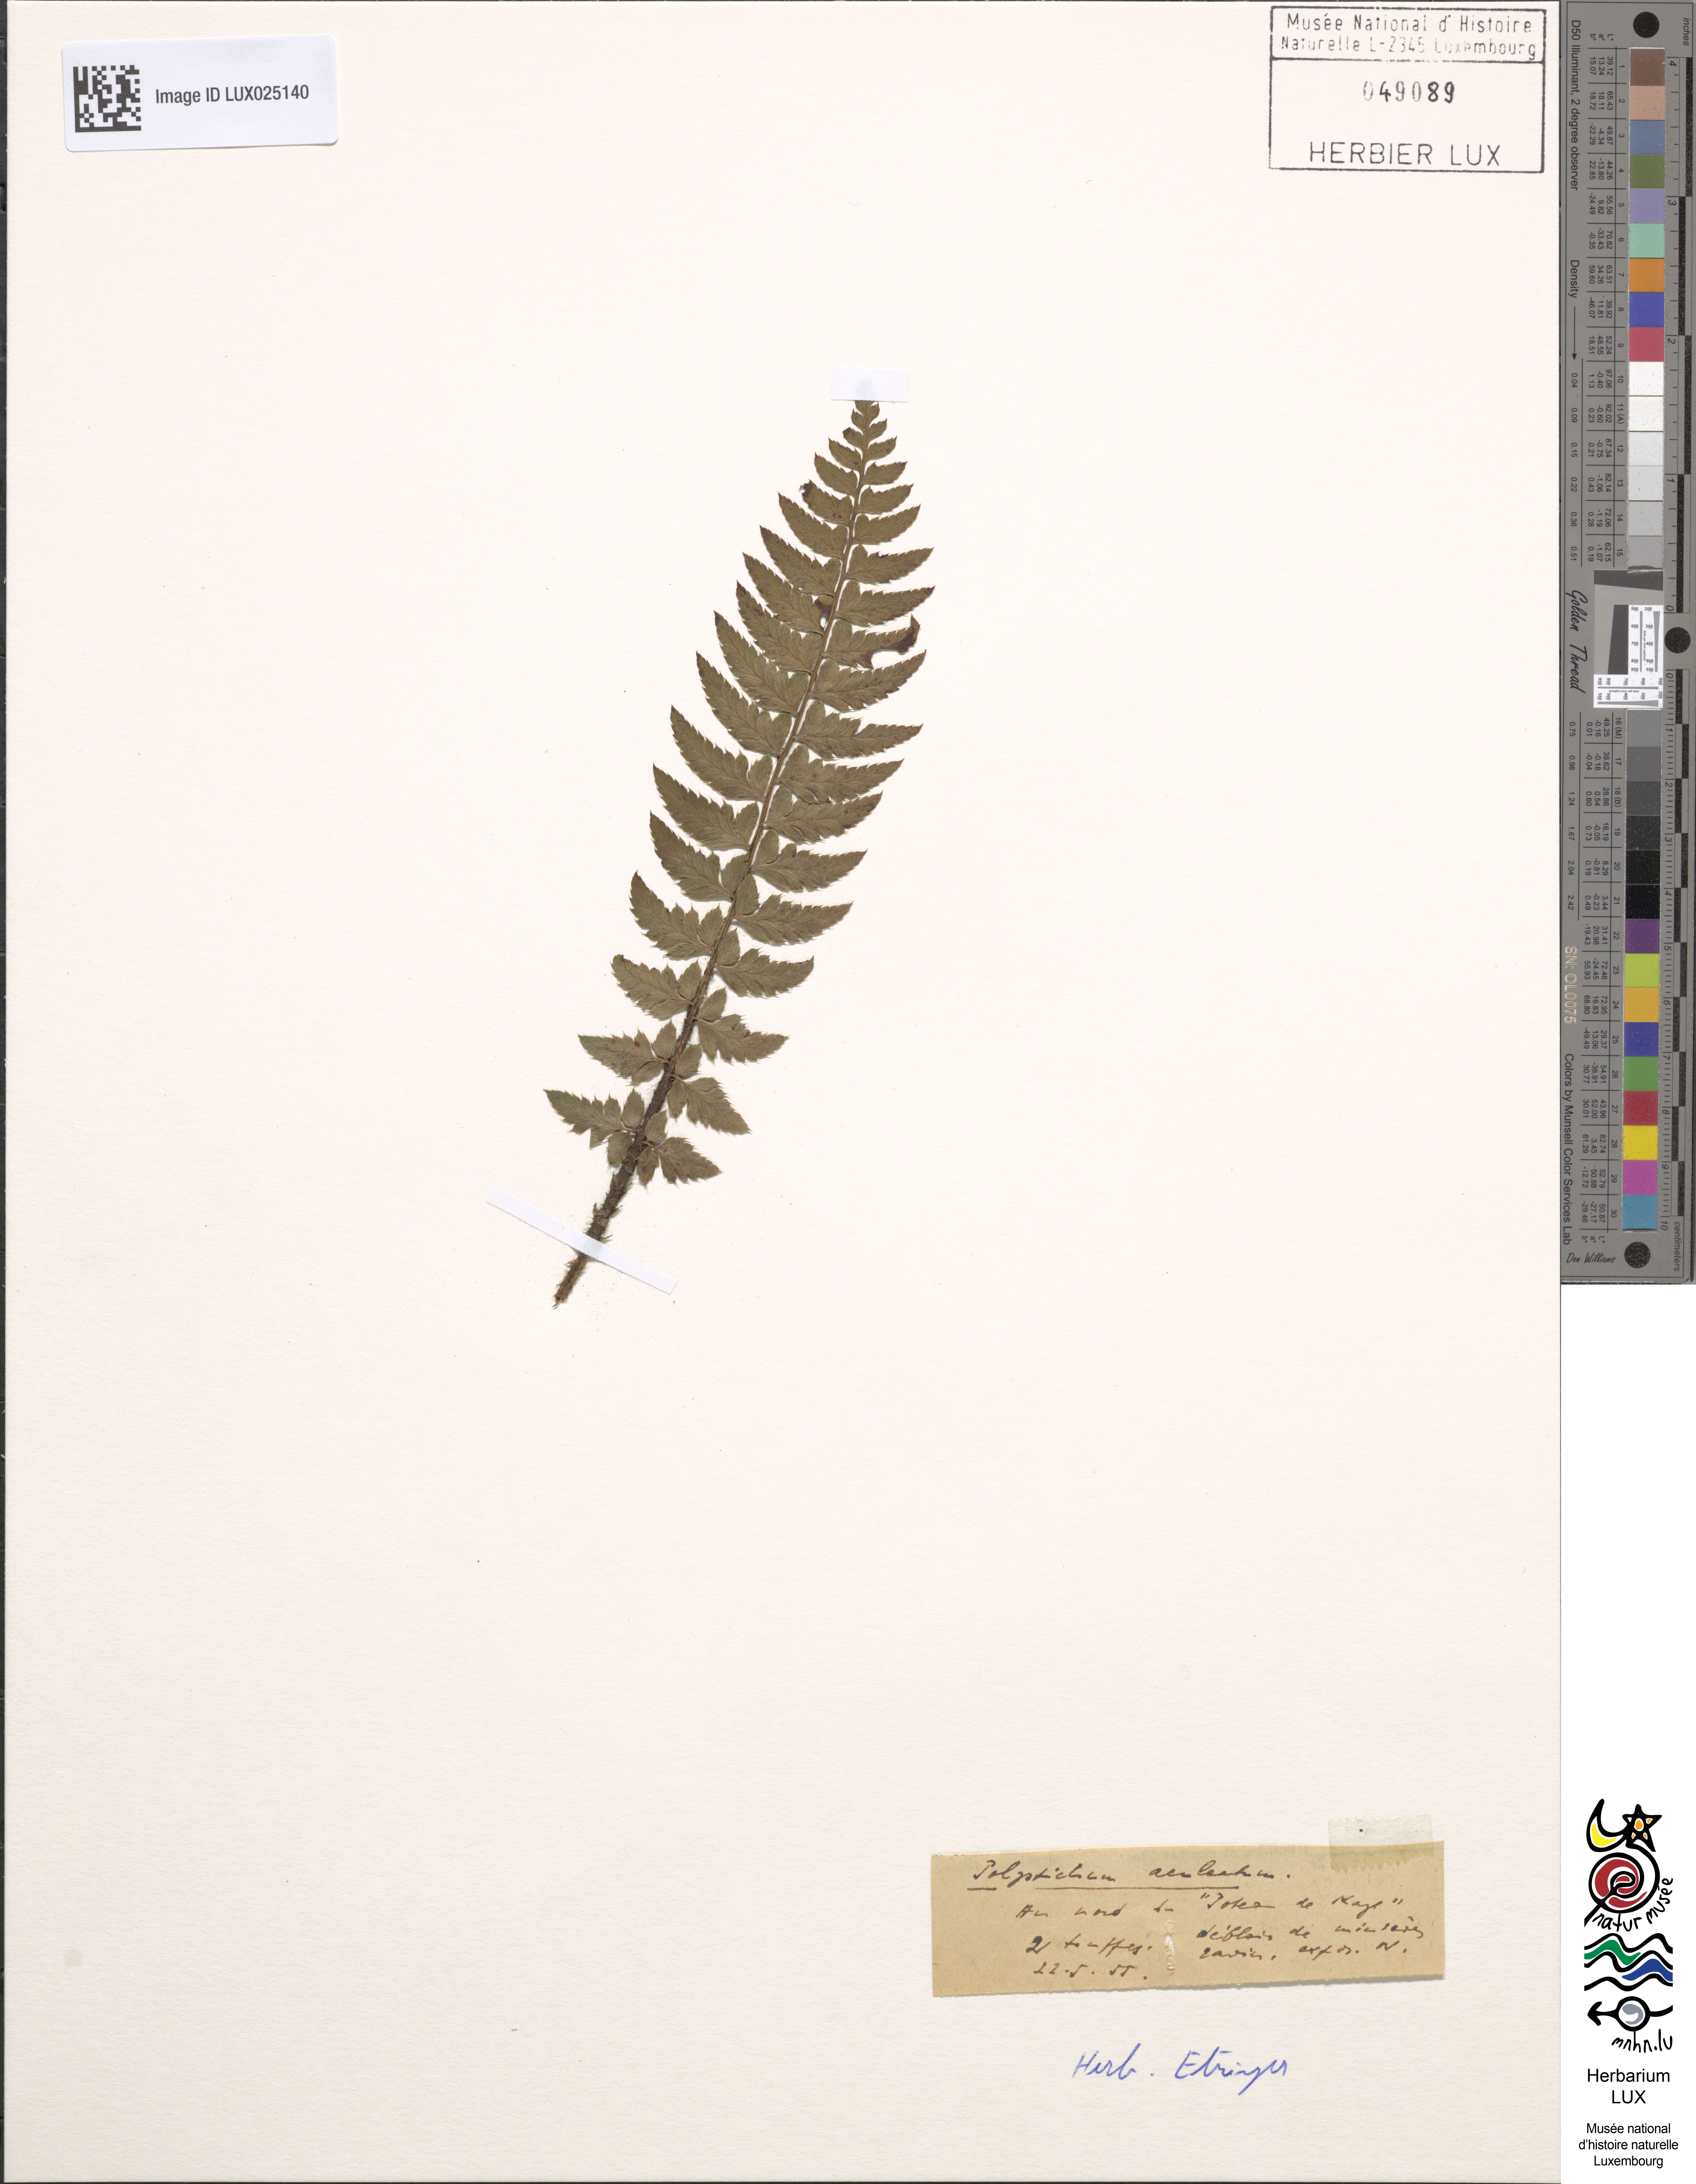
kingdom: Plantae
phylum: Tracheophyta
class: Polypodiopsida
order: Polypodiales
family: Dryopteridaceae
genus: Polystichum
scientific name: Polystichum aculeatum
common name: Hard shield-fern
